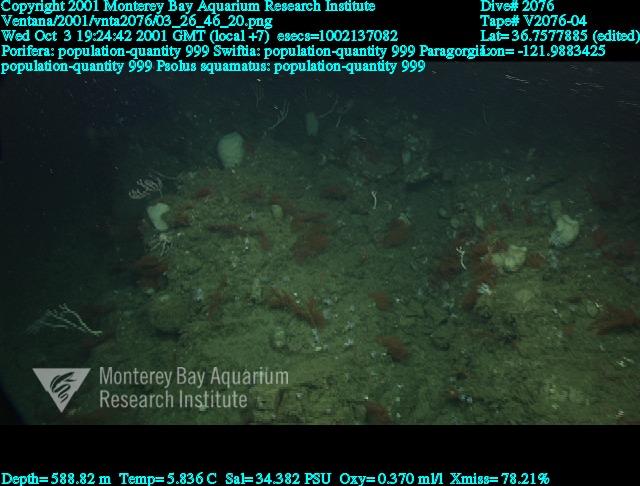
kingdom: Animalia
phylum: Porifera
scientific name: Porifera
